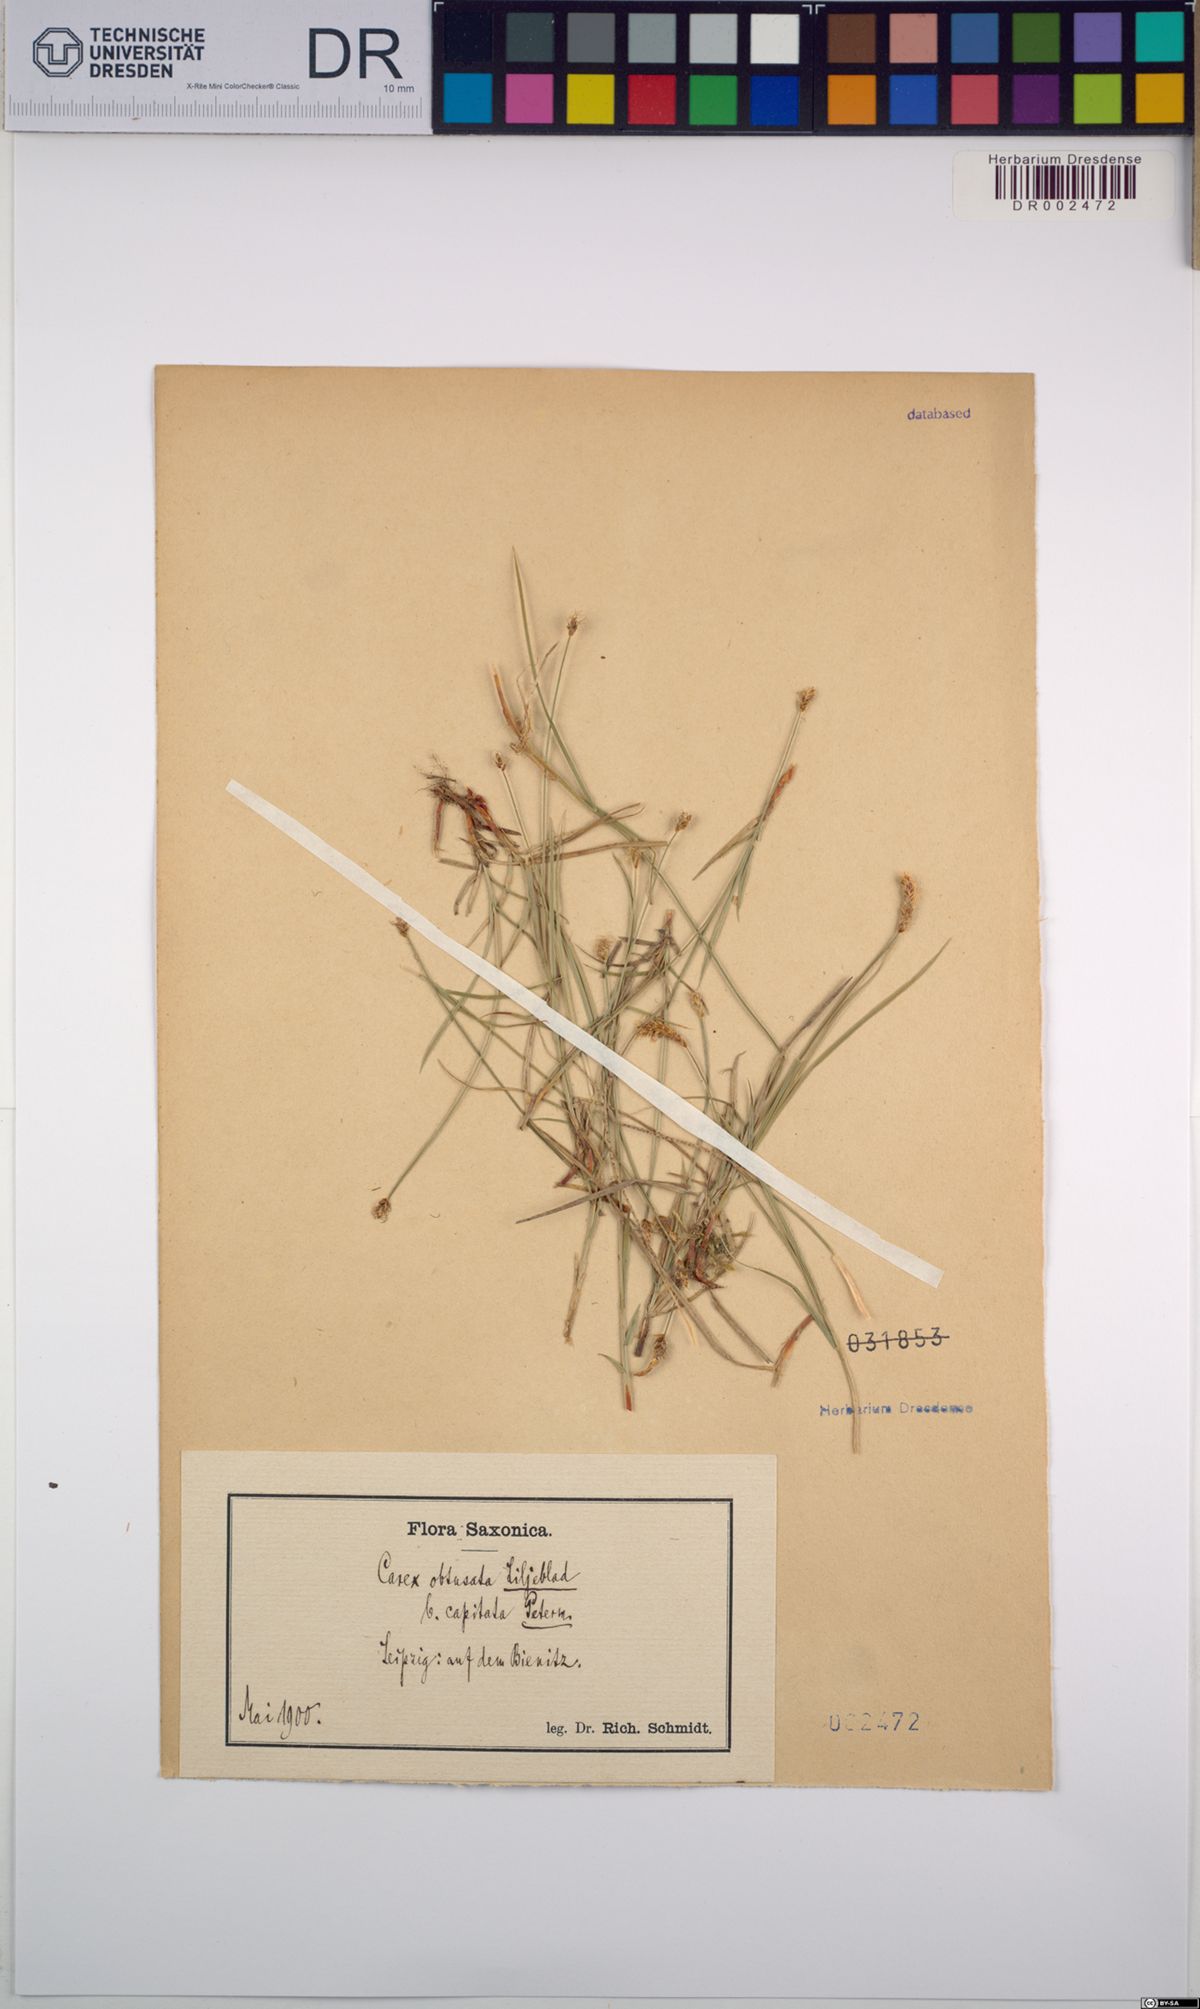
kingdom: Plantae
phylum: Tracheophyta
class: Liliopsida
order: Poales
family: Cyperaceae
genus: Carex
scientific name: Carex obtusata
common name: Blunt sedge
